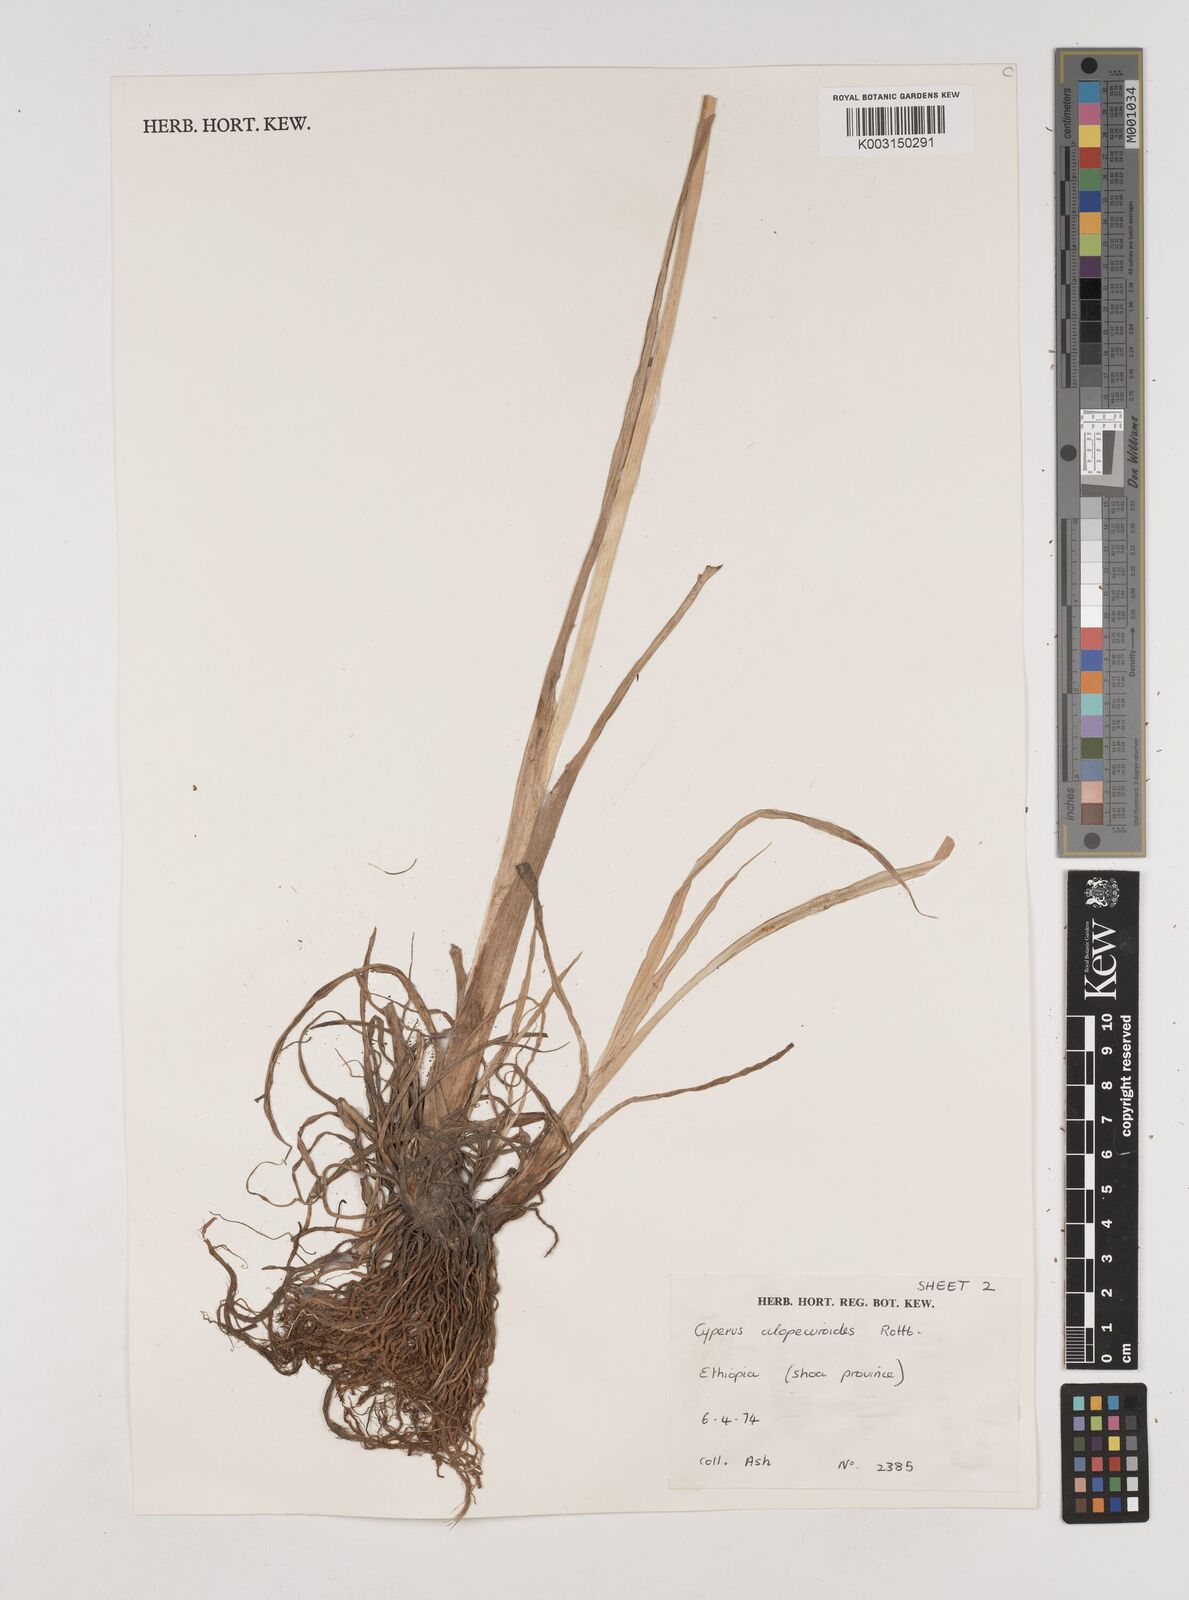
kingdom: Plantae
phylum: Tracheophyta
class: Liliopsida
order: Poales
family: Cyperaceae
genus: Cyperus
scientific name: Cyperus alopecuroides
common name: Foxtail flatsedge
